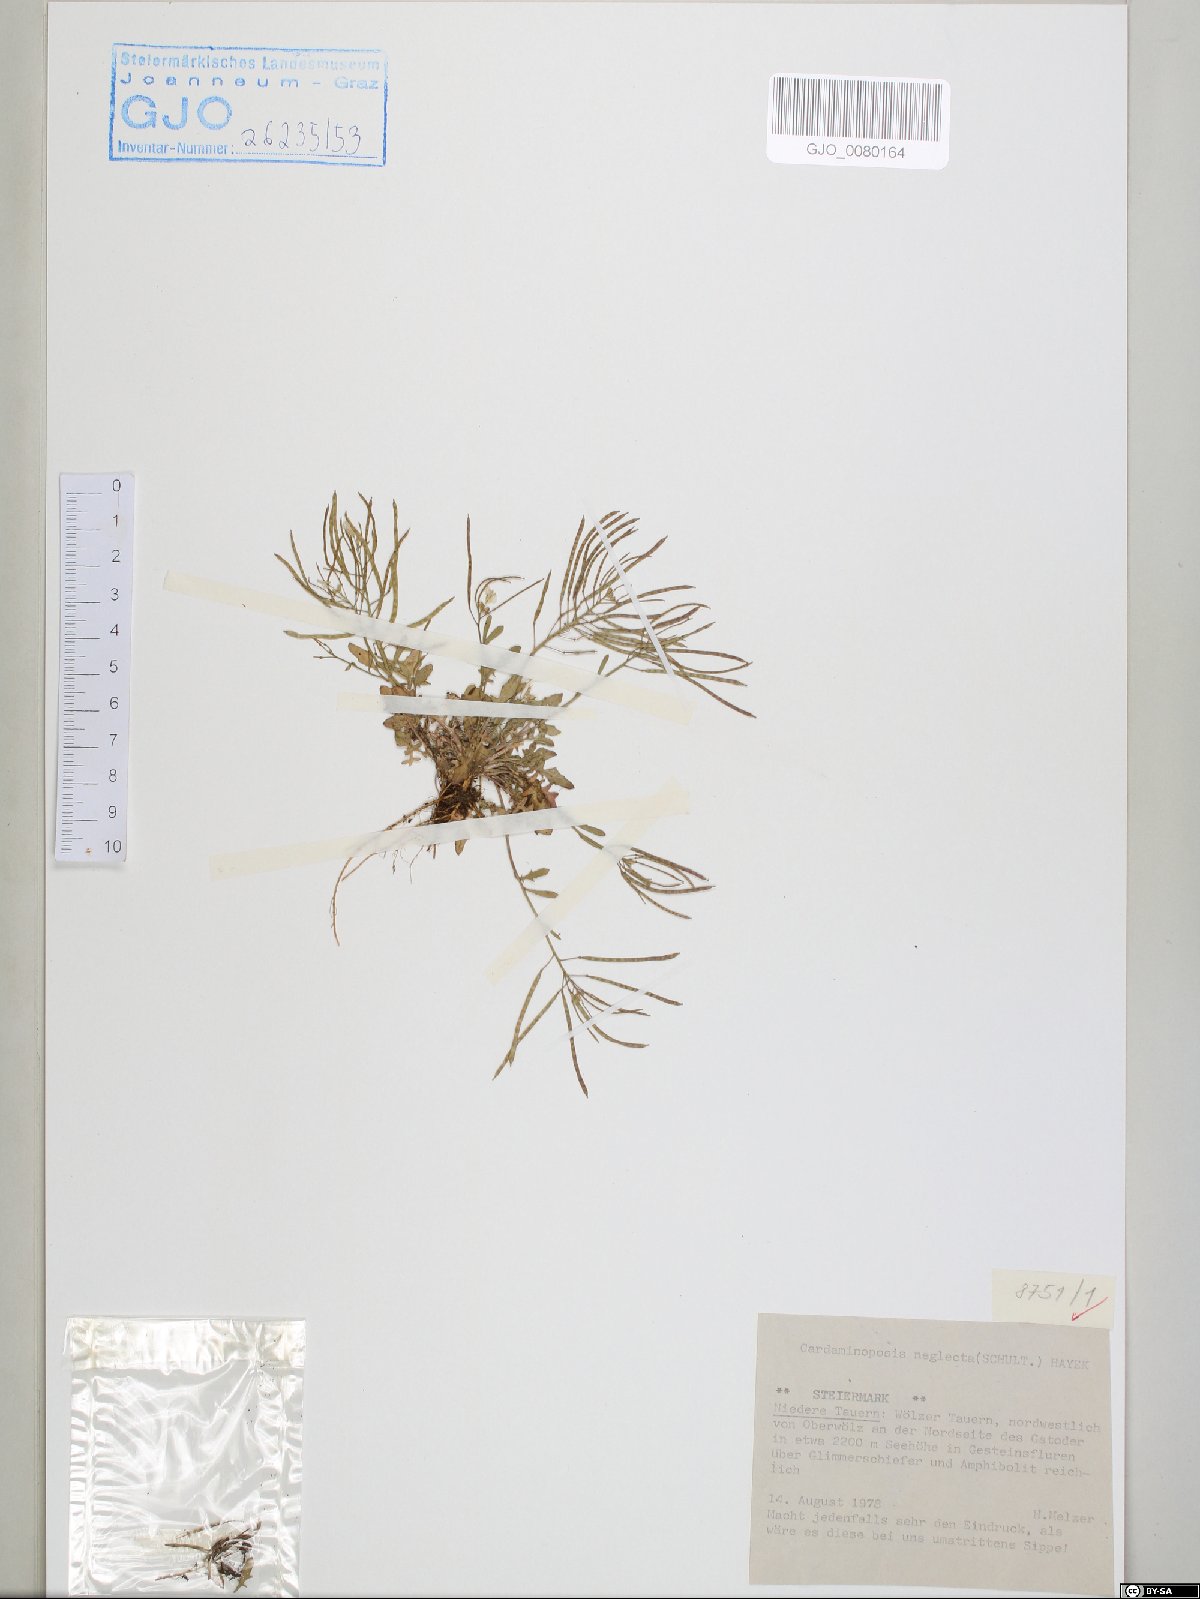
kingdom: Plantae
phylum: Tracheophyta
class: Magnoliopsida
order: Brassicales
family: Brassicaceae
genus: Arabidopsis
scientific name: Arabidopsis neglecta
